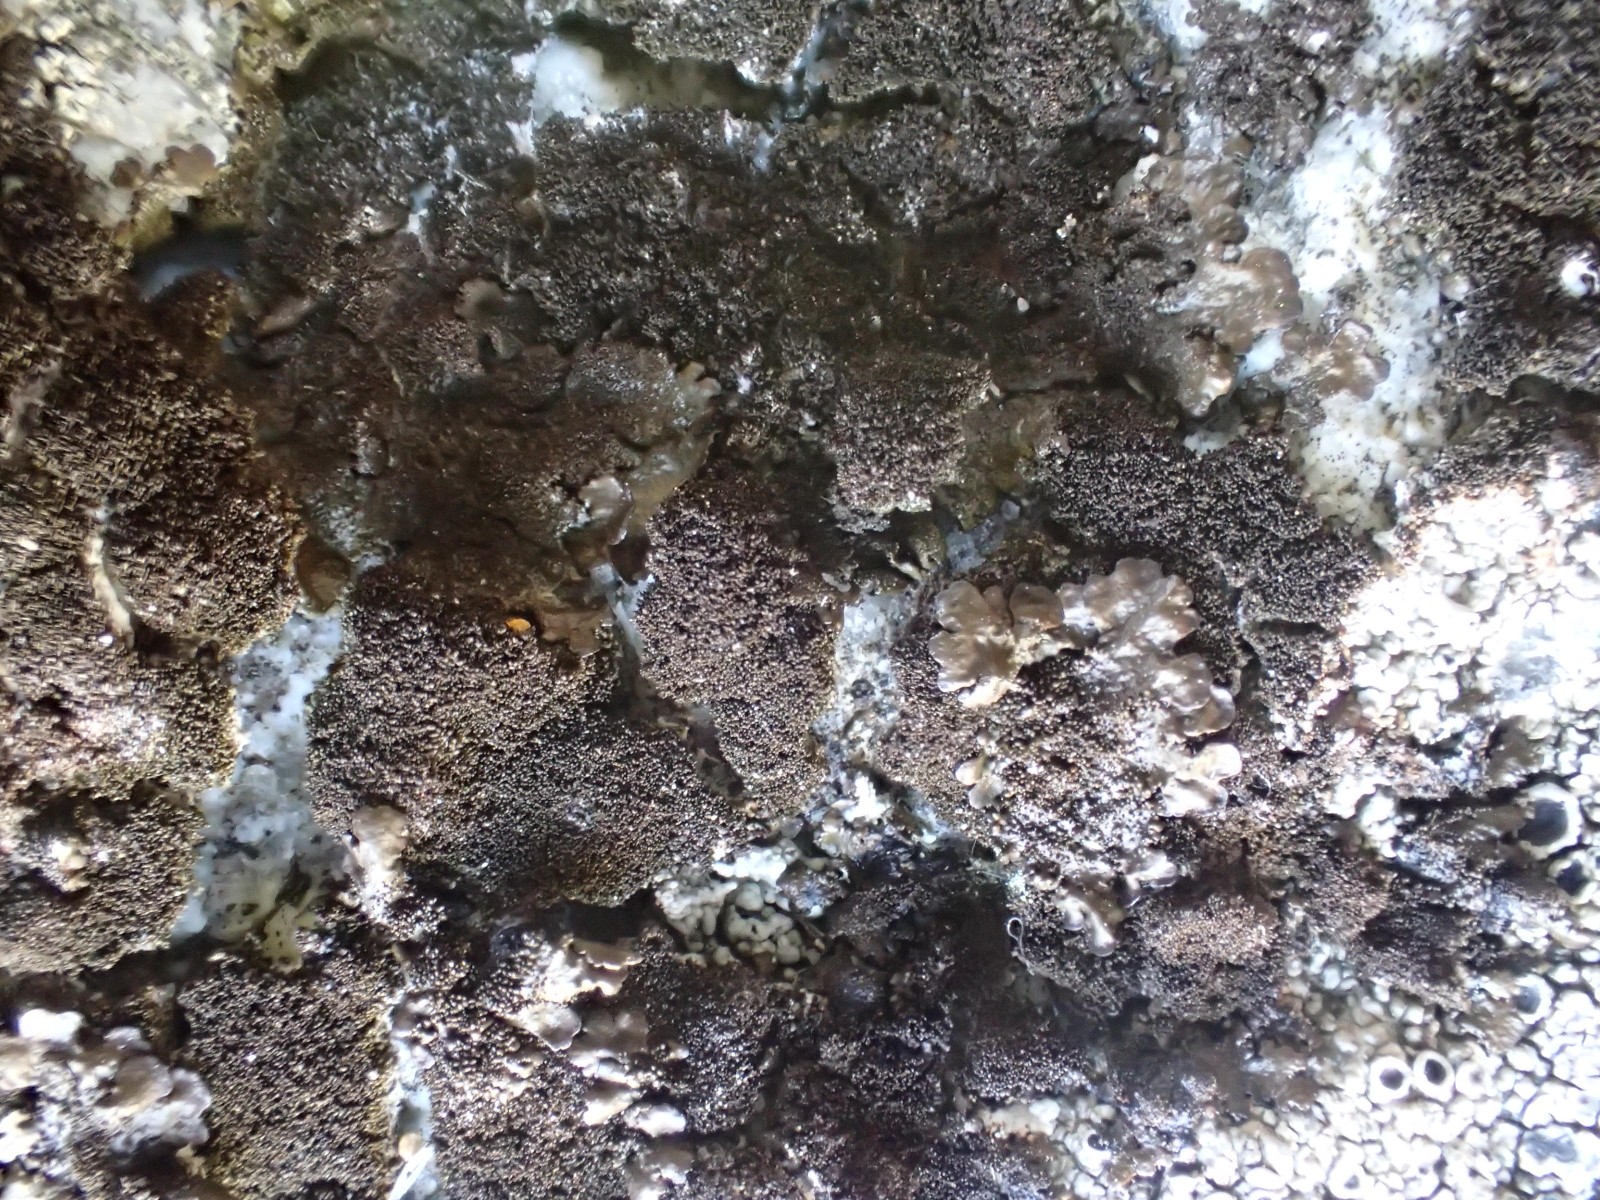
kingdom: Fungi
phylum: Ascomycota
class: Lecanoromycetes
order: Lecanorales
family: Parmeliaceae
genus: Melanelixia
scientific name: Melanelixia fuliginosa
